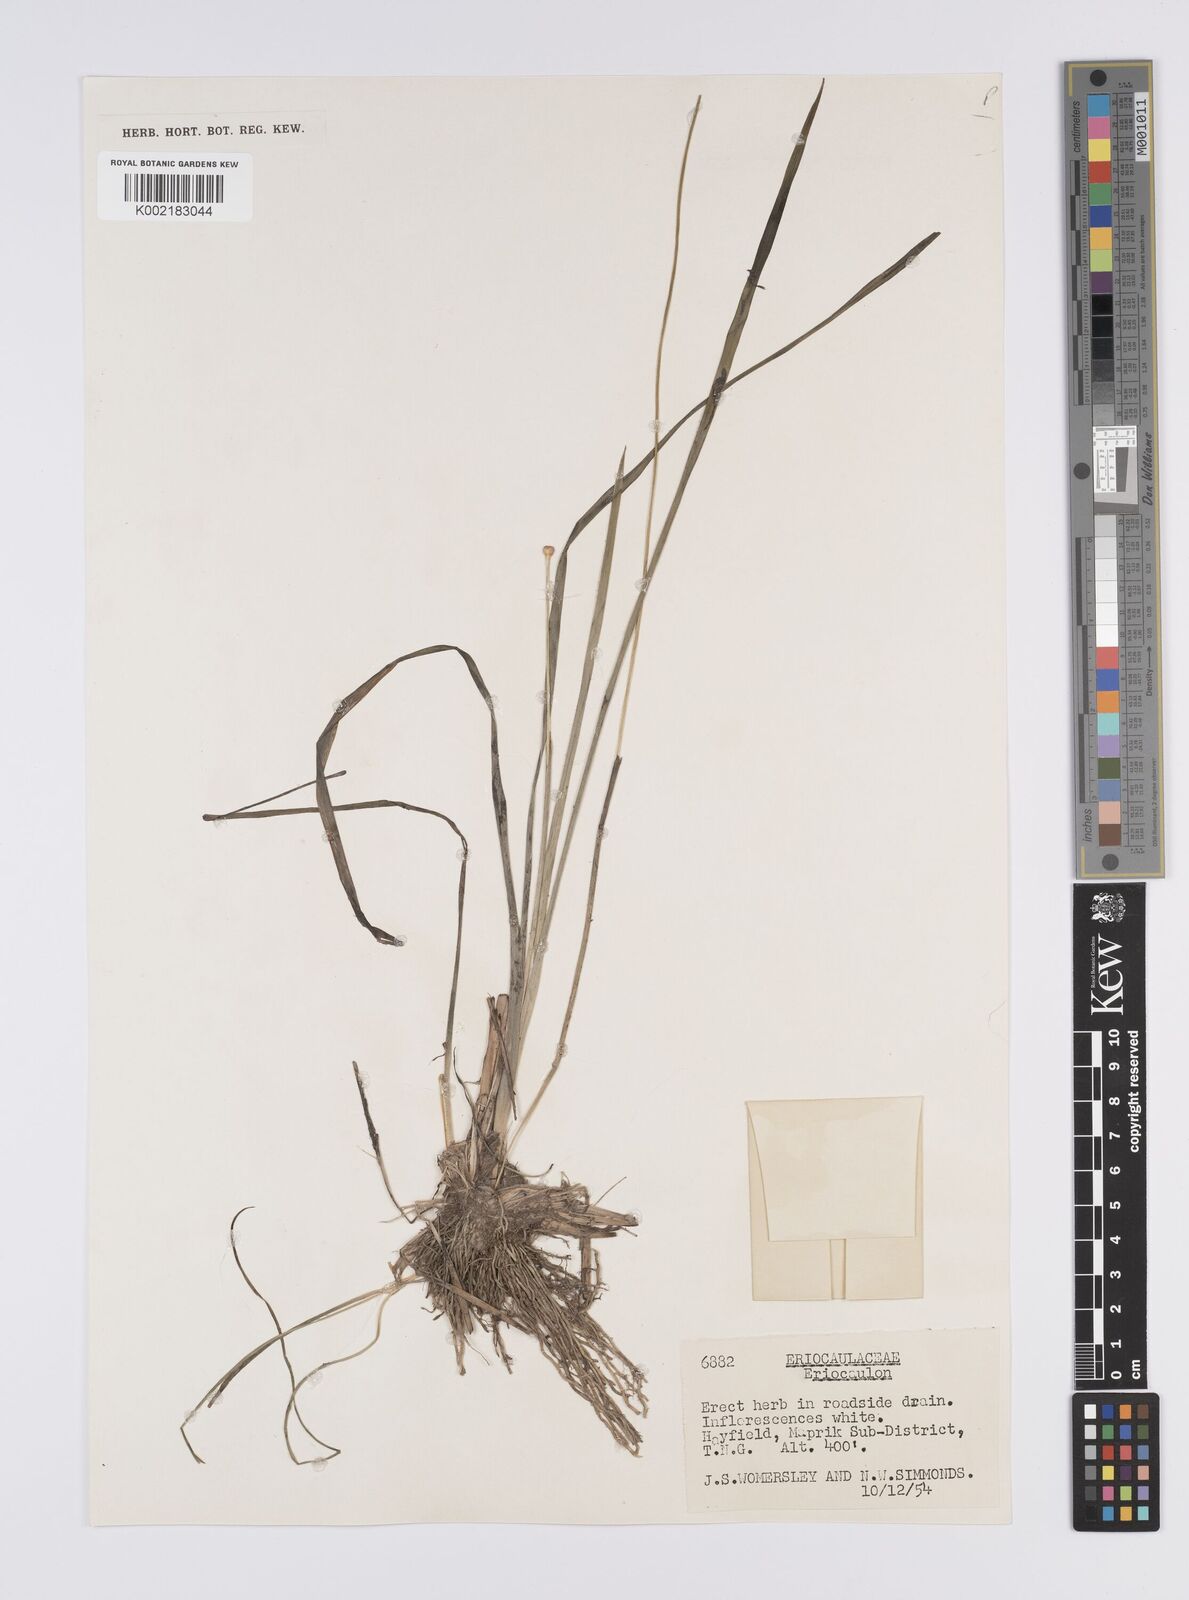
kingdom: Plantae
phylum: Tracheophyta
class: Liliopsida
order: Poales
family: Eriocaulaceae
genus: Eriocaulon
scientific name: Eriocaulon
